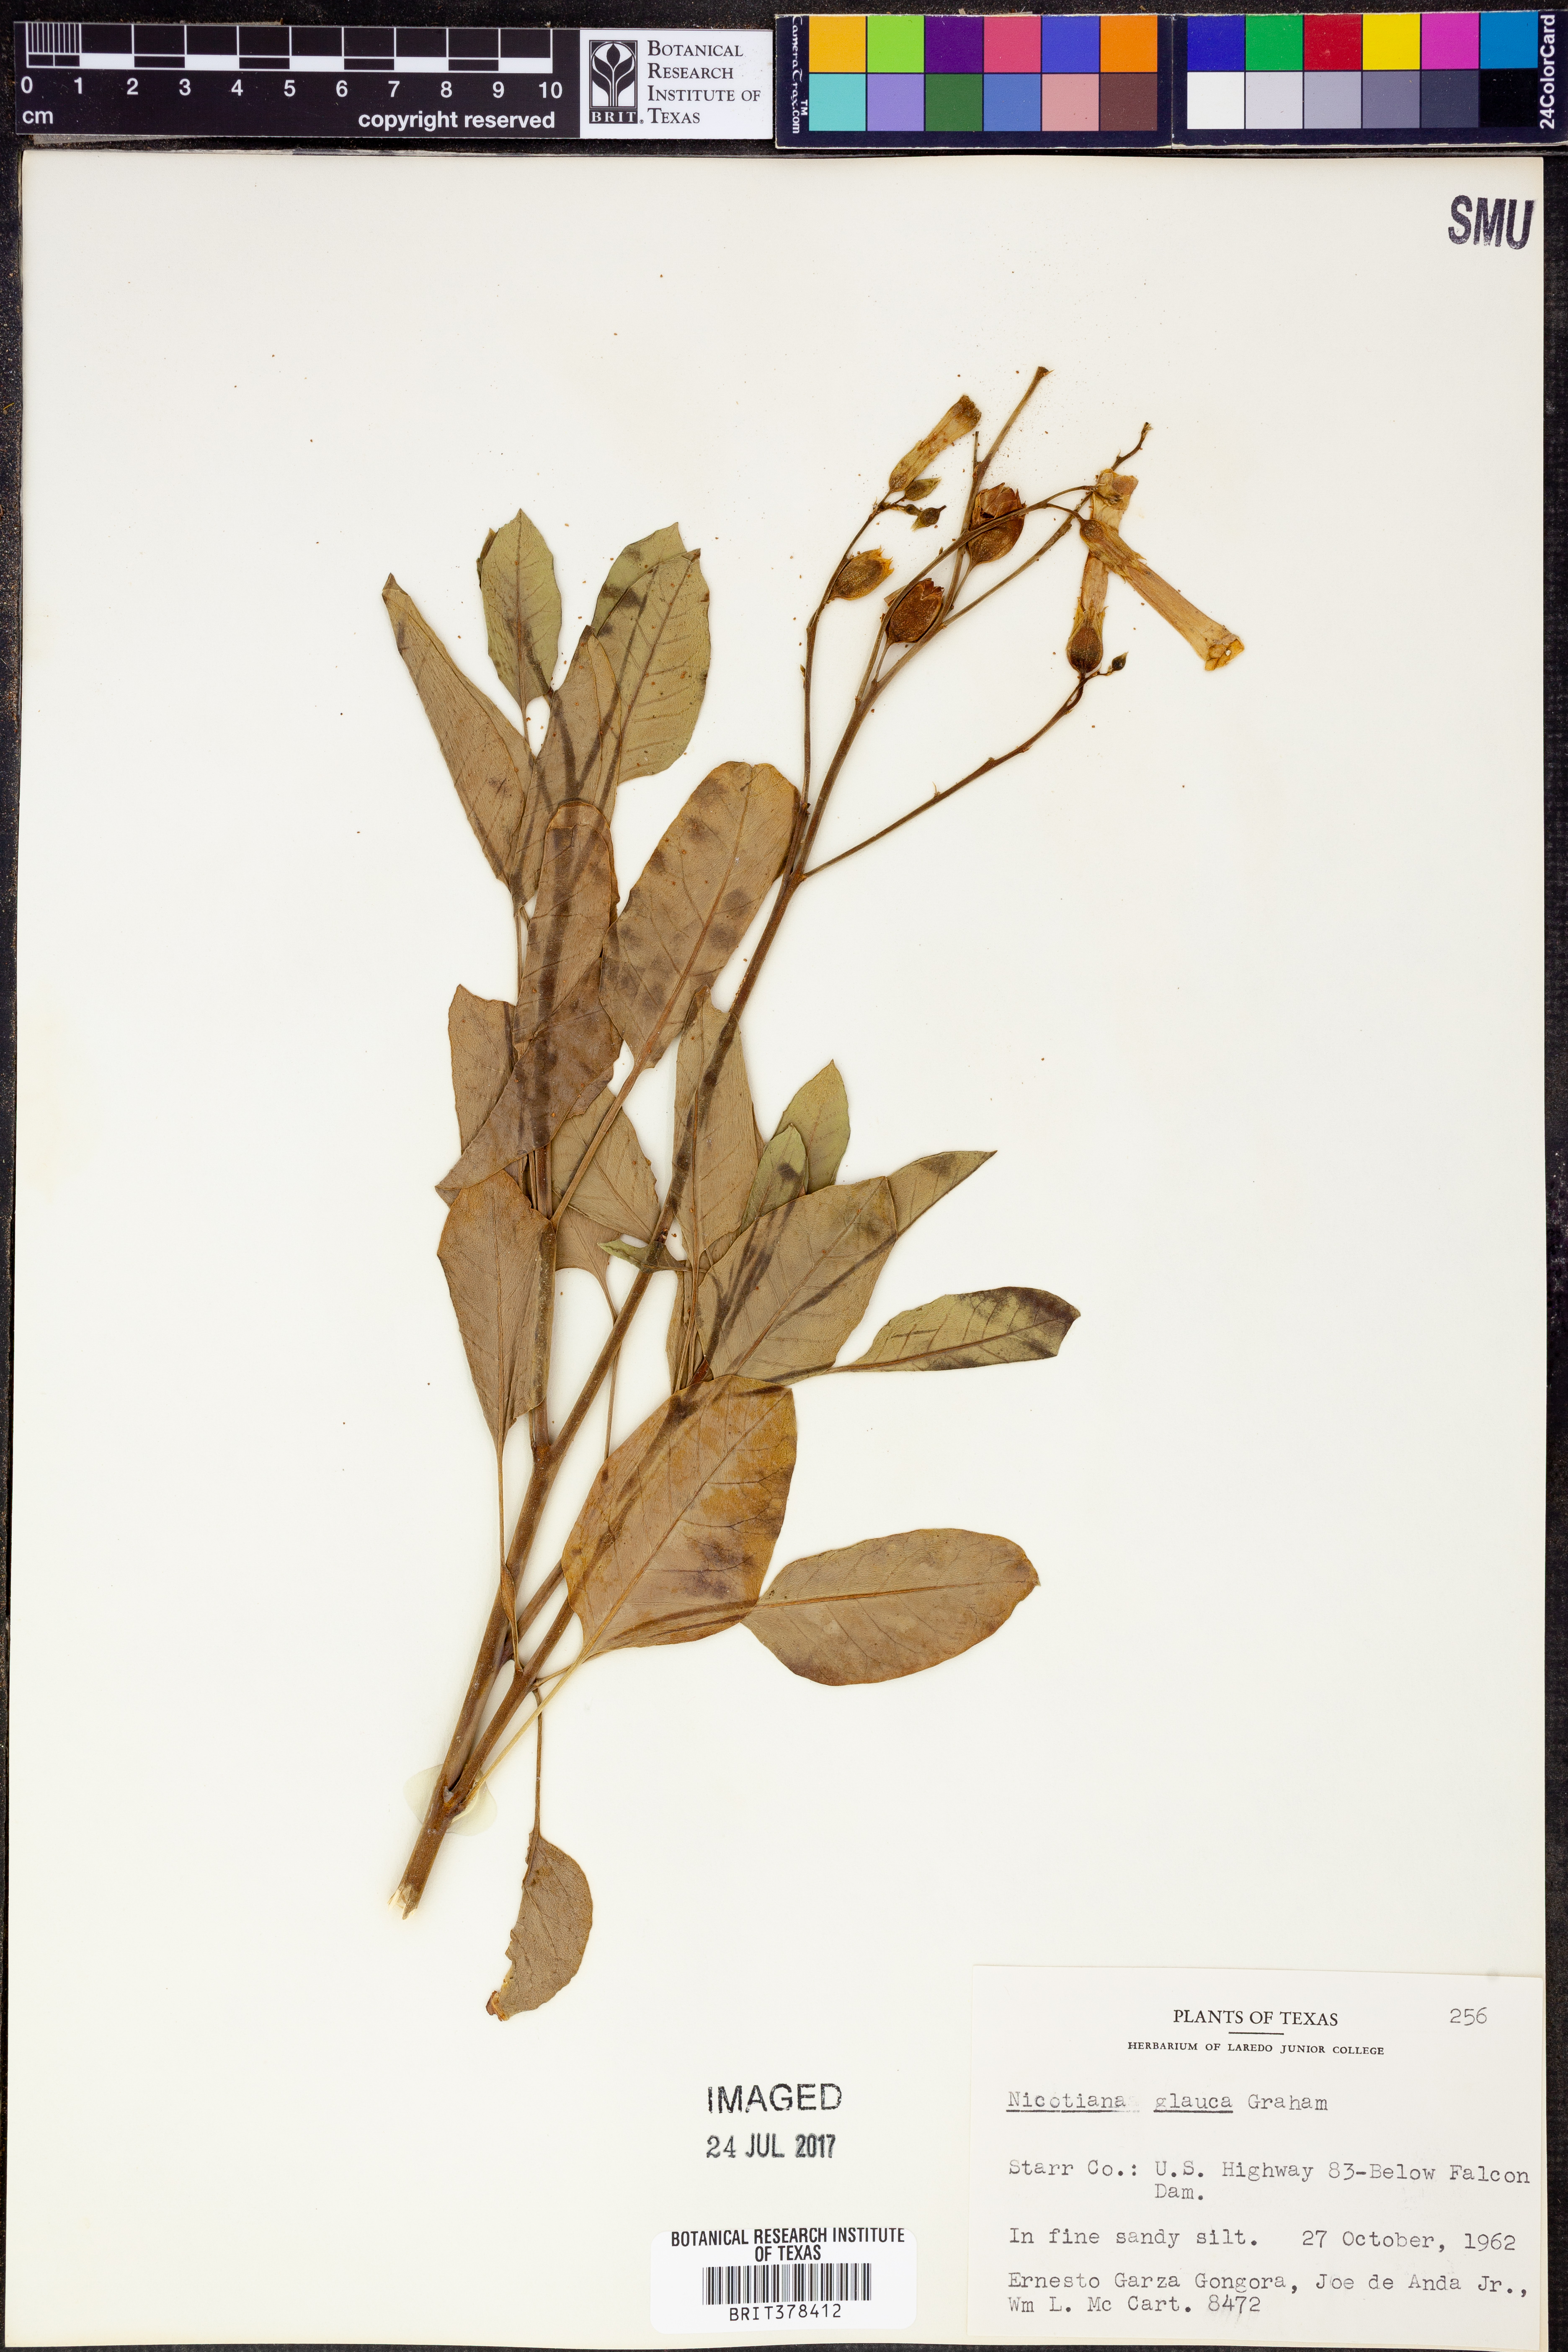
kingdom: Plantae
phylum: Tracheophyta
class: Magnoliopsida
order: Solanales
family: Solanaceae
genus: Nicotiana
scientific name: Nicotiana glauca
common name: Tree tobacco
